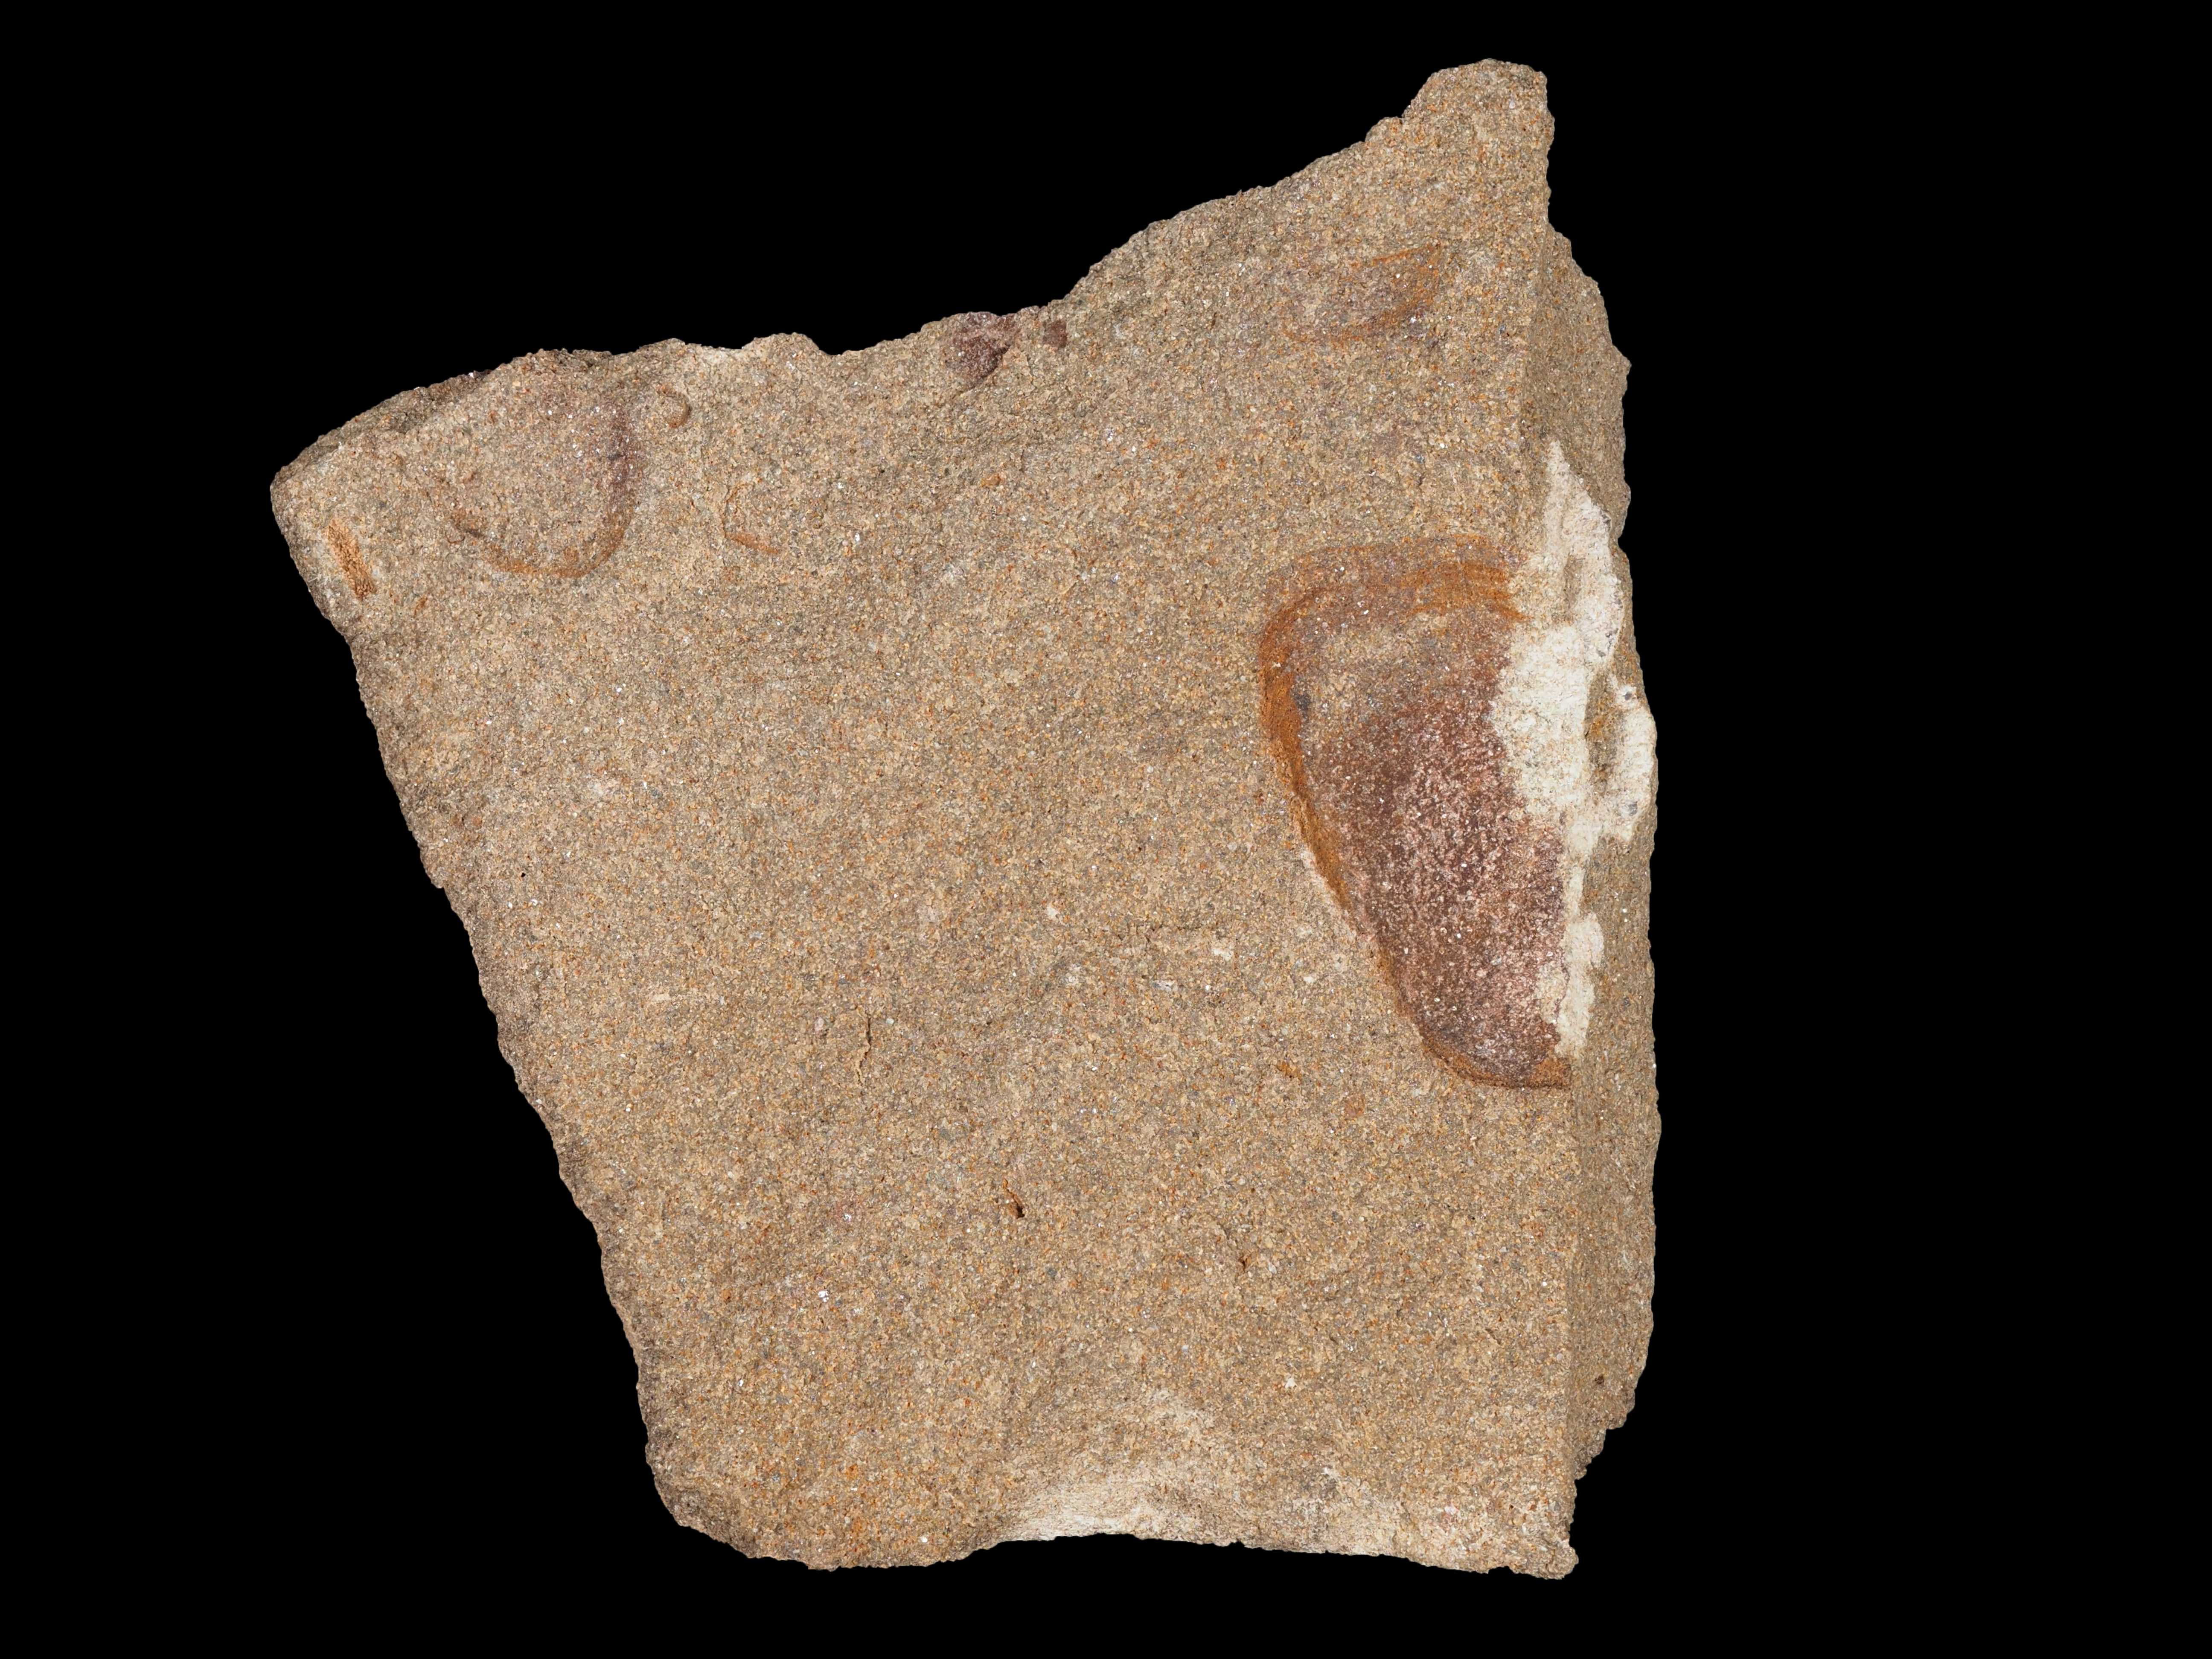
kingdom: Animalia
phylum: Mollusca
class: Bivalvia
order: Nuculanida
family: Malletiidae
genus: Palaeoneilo
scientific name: Palaeoneilo
